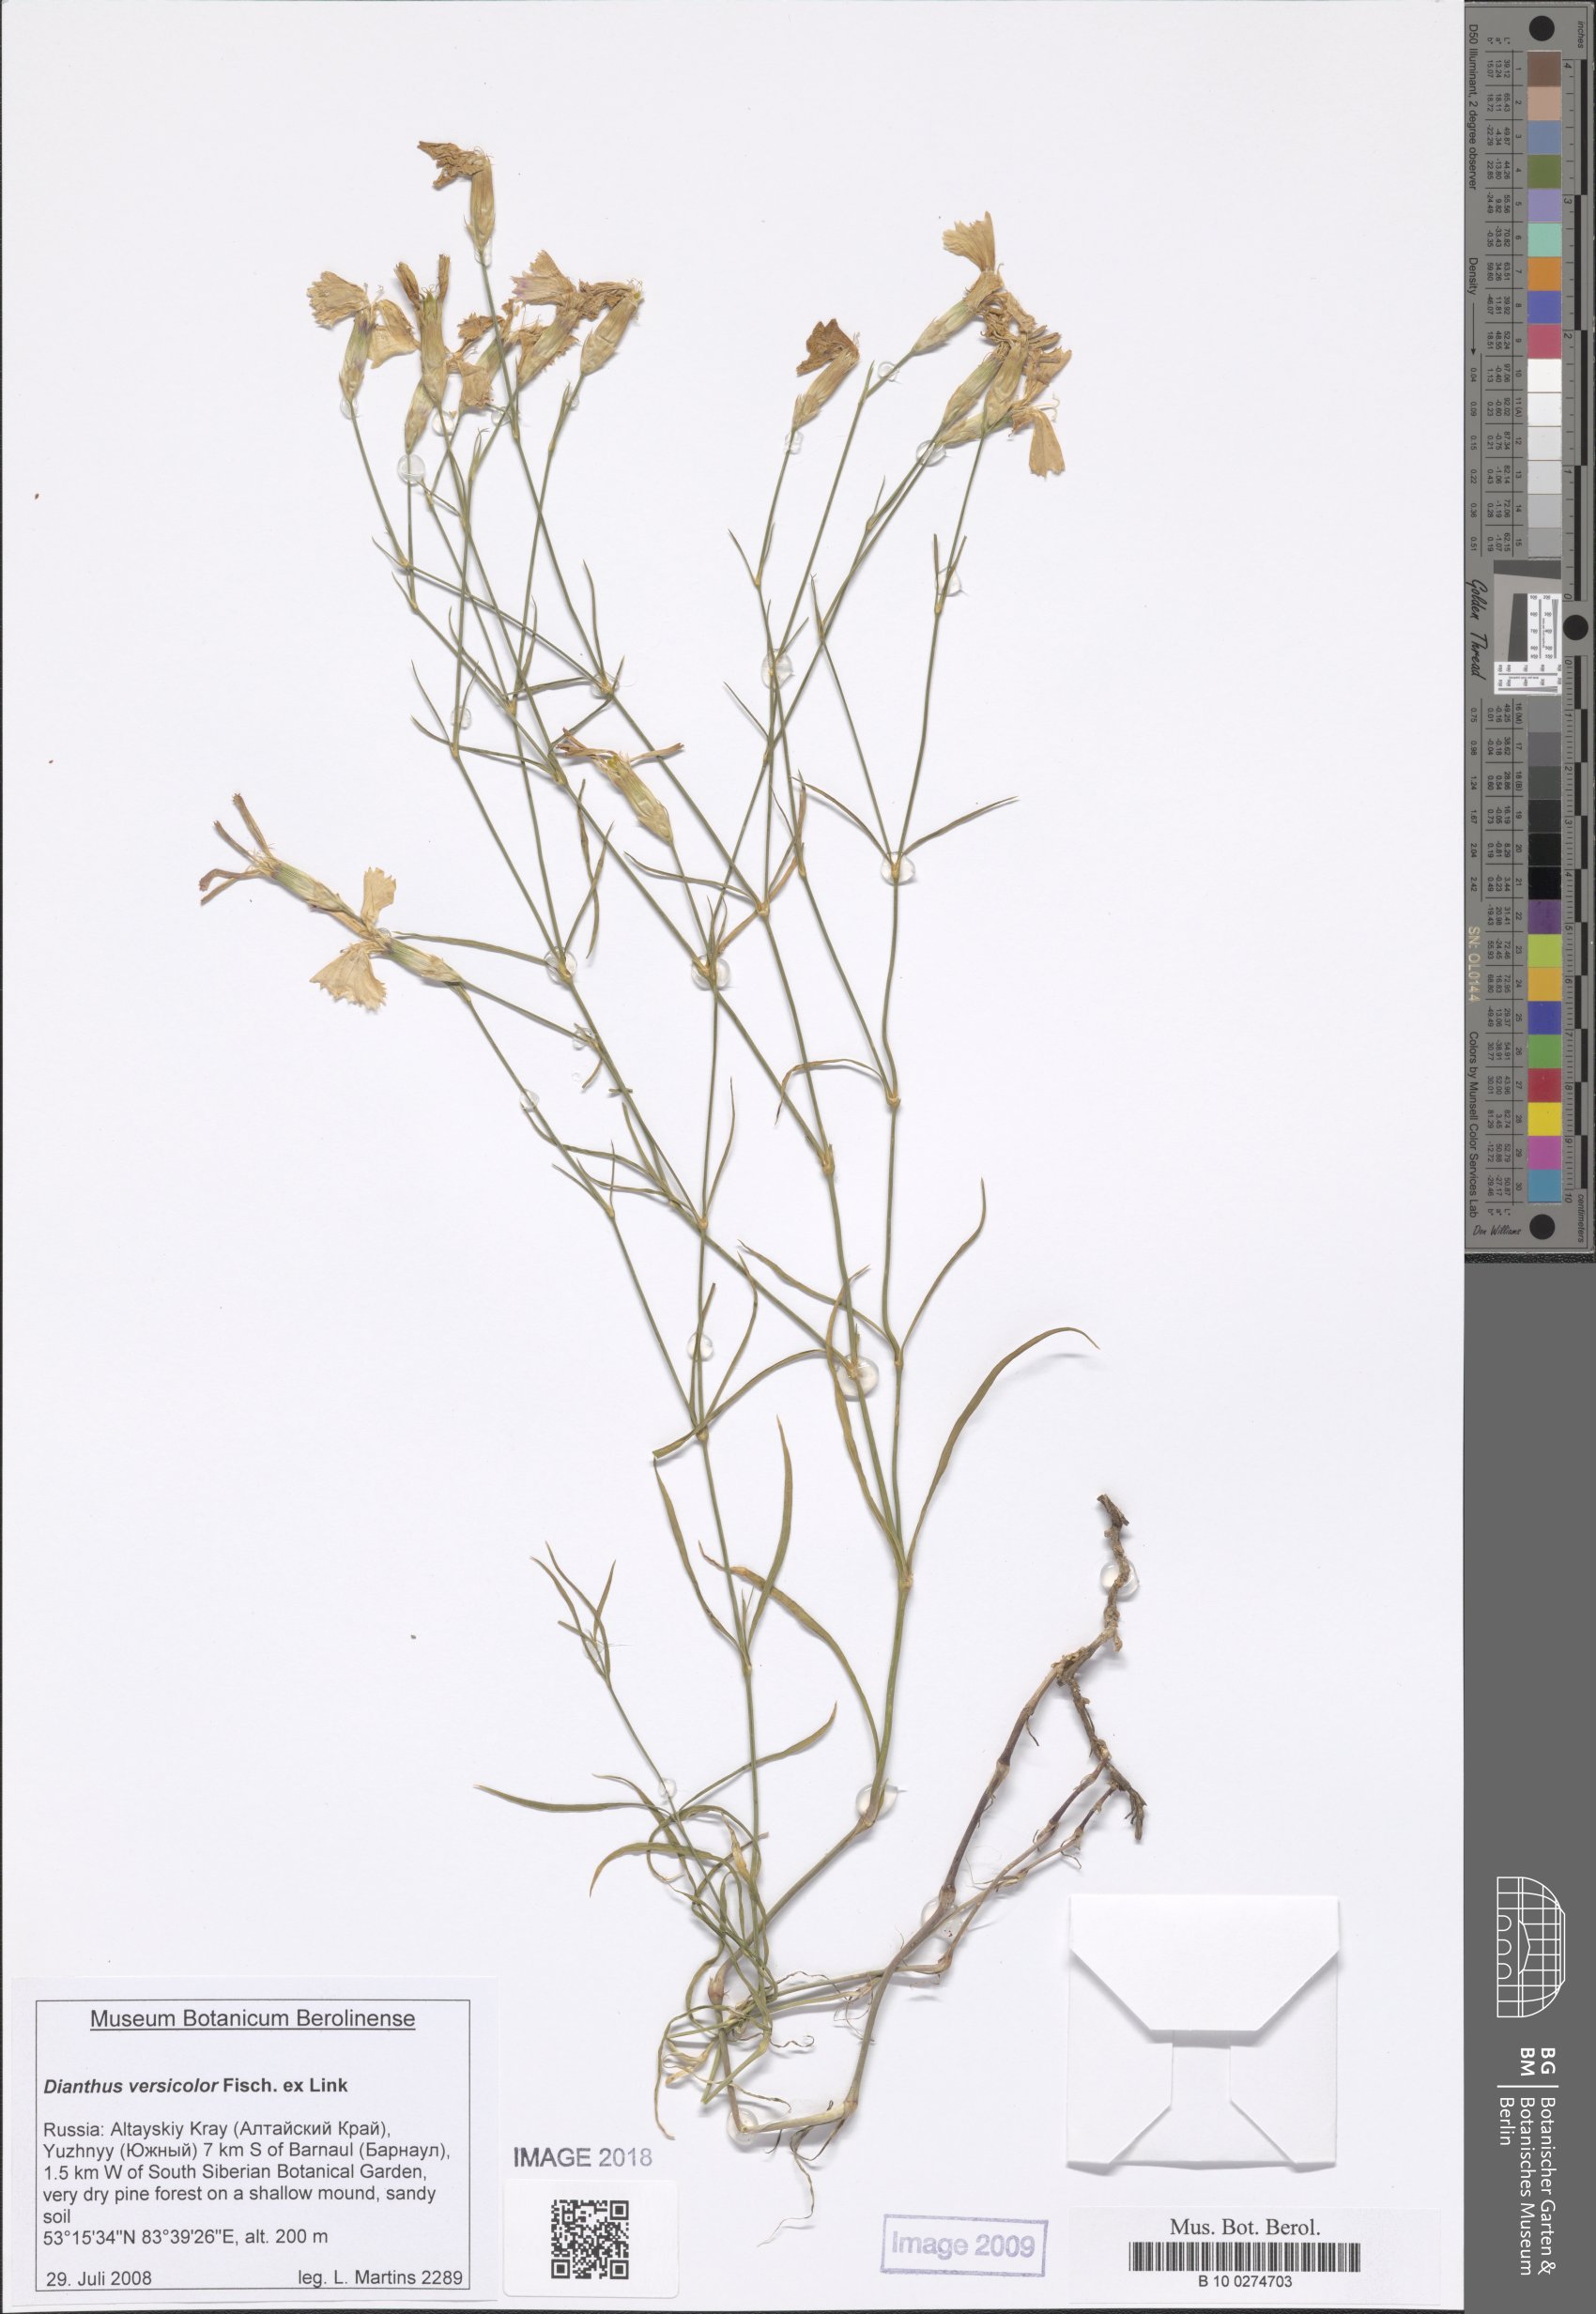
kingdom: Plantae
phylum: Tracheophyta
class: Magnoliopsida
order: Caryophyllales
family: Caryophyllaceae
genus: Dianthus
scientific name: Dianthus chinensis
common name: Rainbow pink
